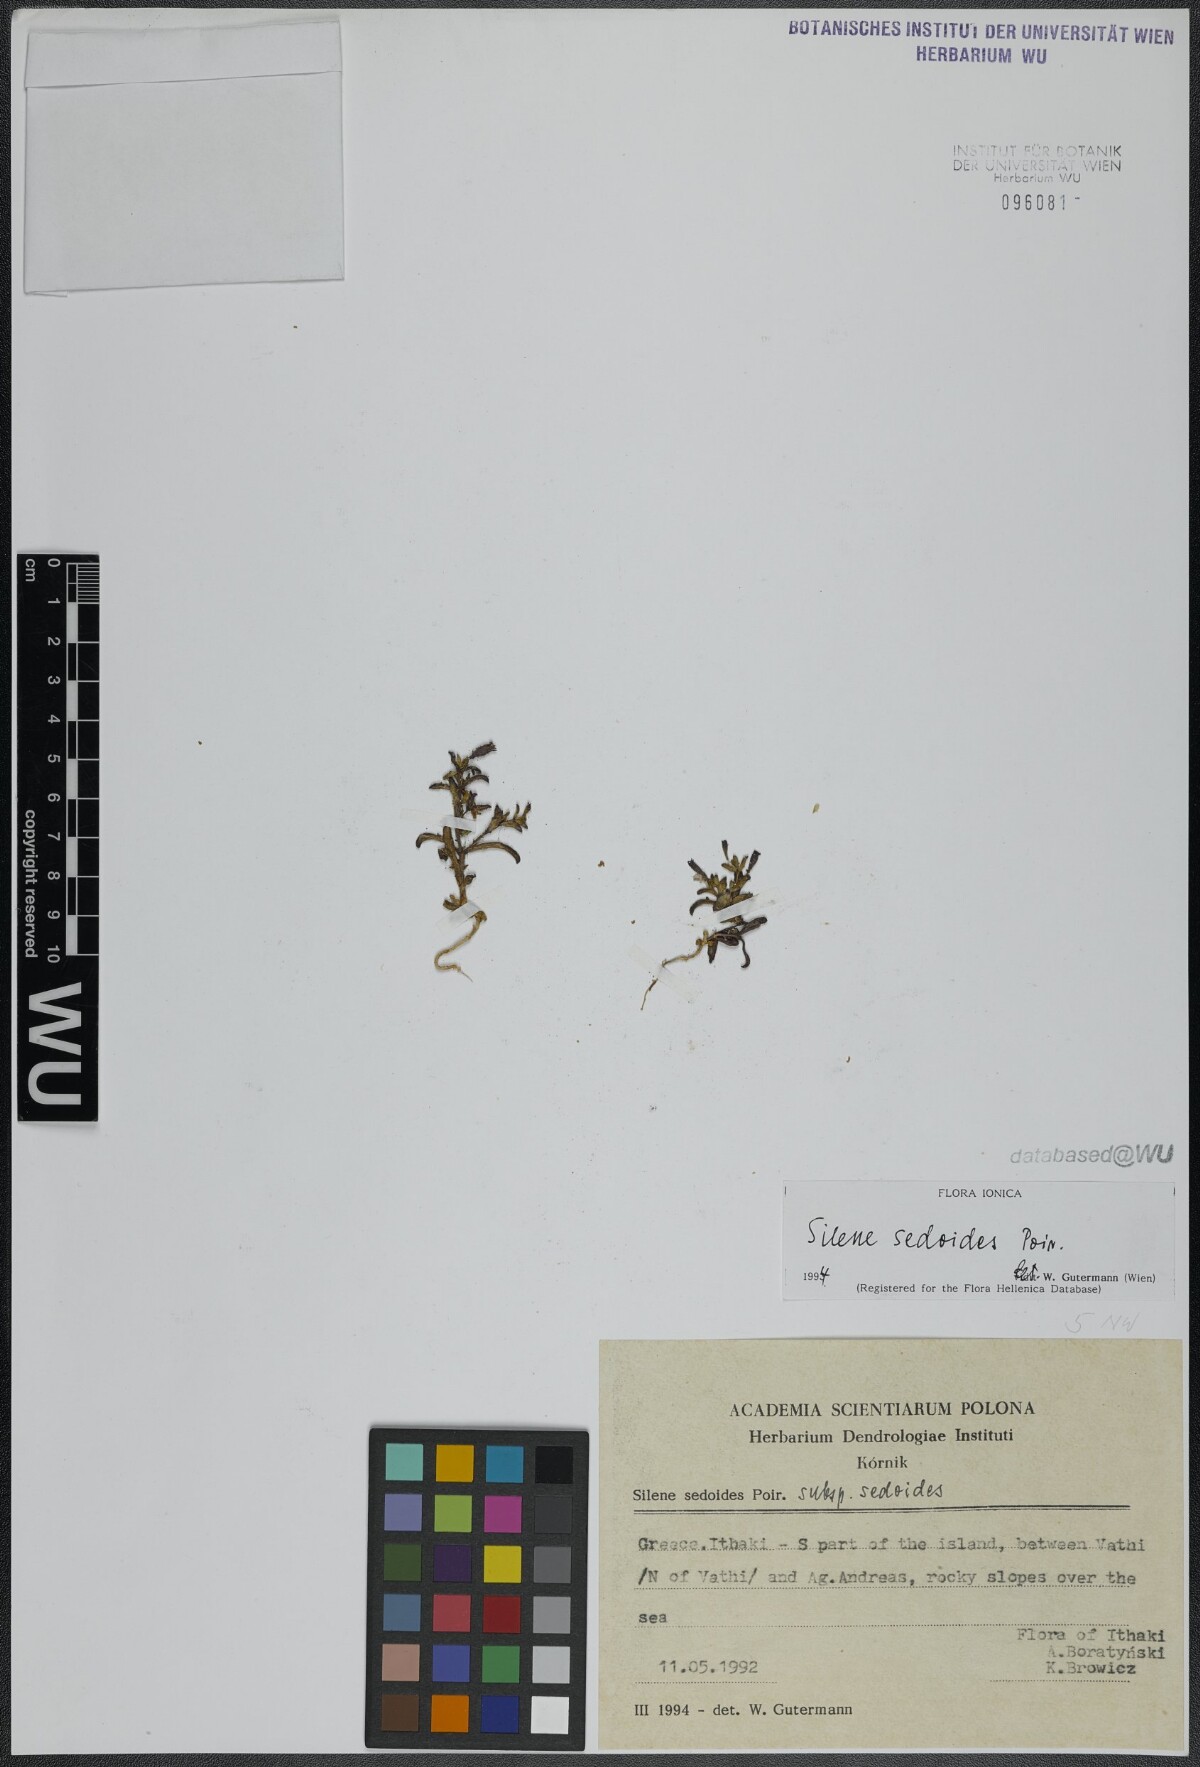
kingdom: Plantae
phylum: Tracheophyta
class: Magnoliopsida
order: Caryophyllales
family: Caryophyllaceae
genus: Silene
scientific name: Silene sedoides
